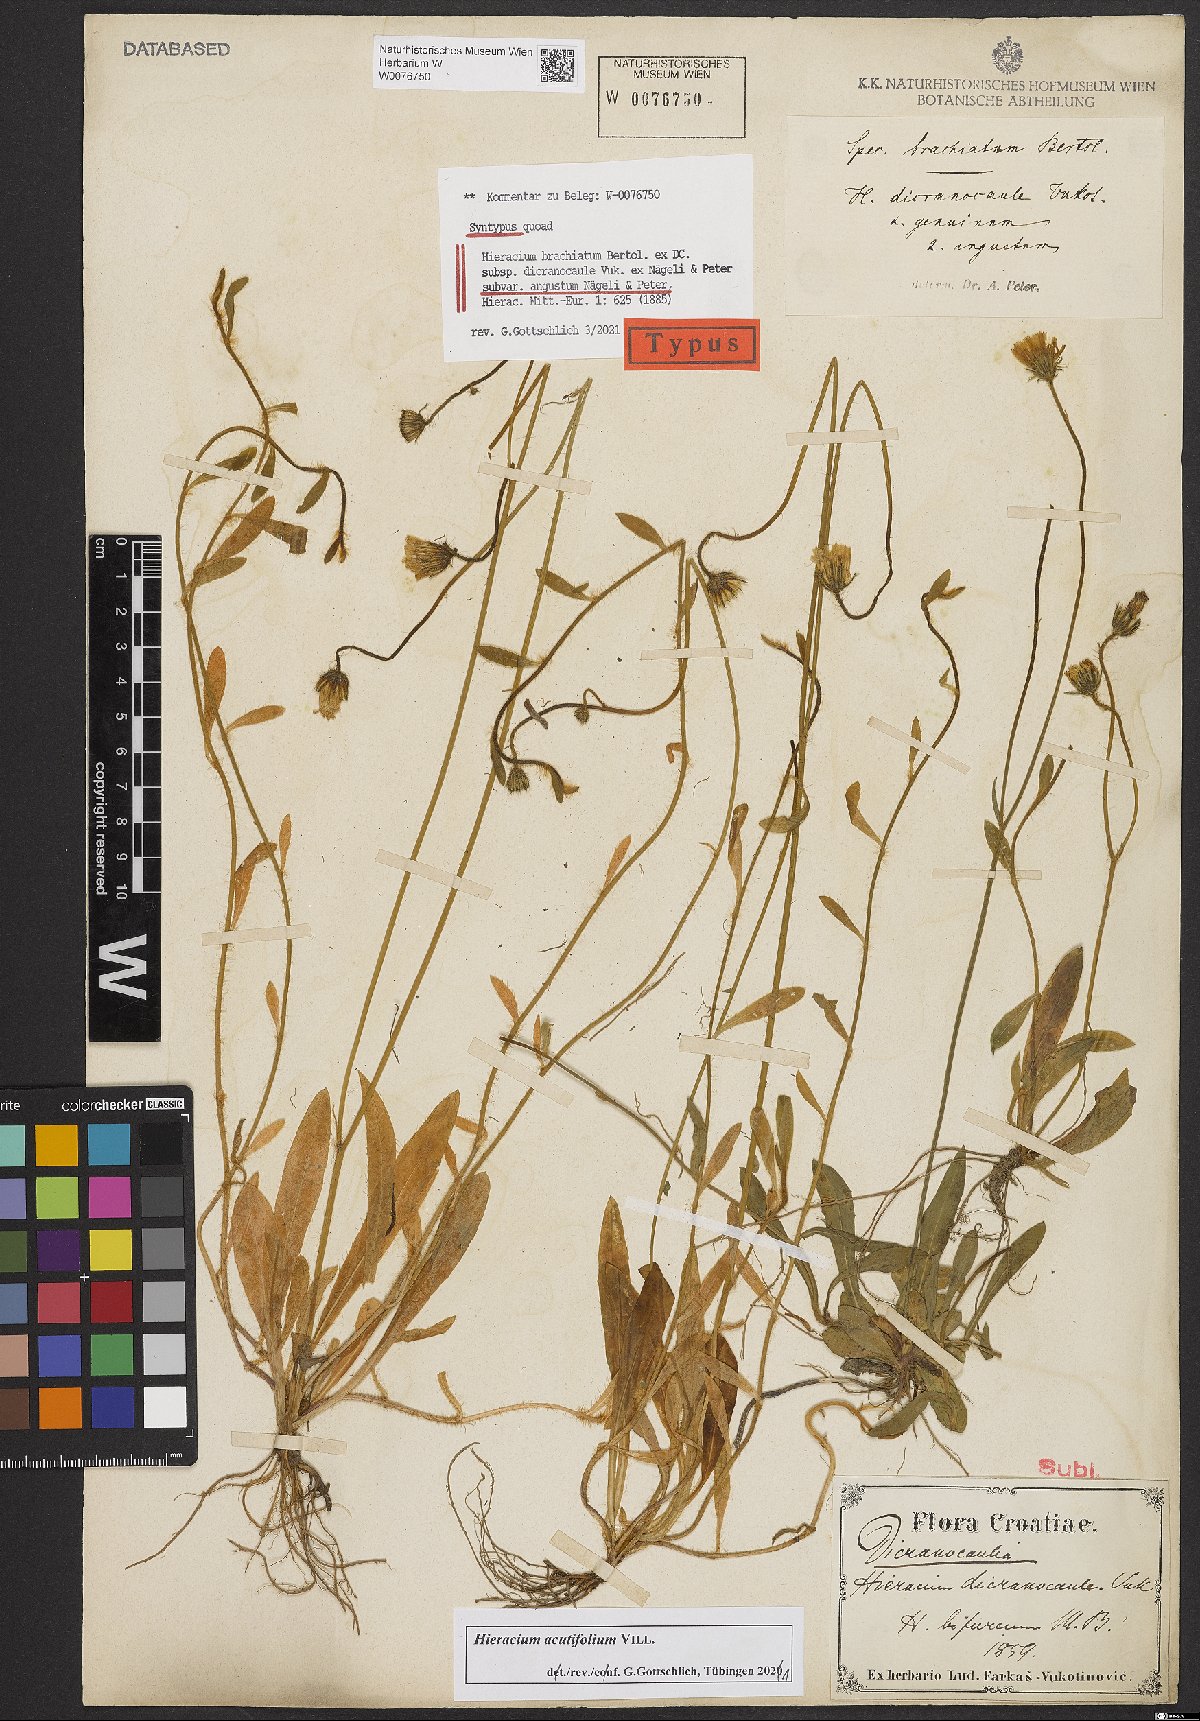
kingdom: Plantae
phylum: Tracheophyta
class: Magnoliopsida
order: Asterales
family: Asteraceae
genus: Pilosella
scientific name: Pilosella acutifolia
